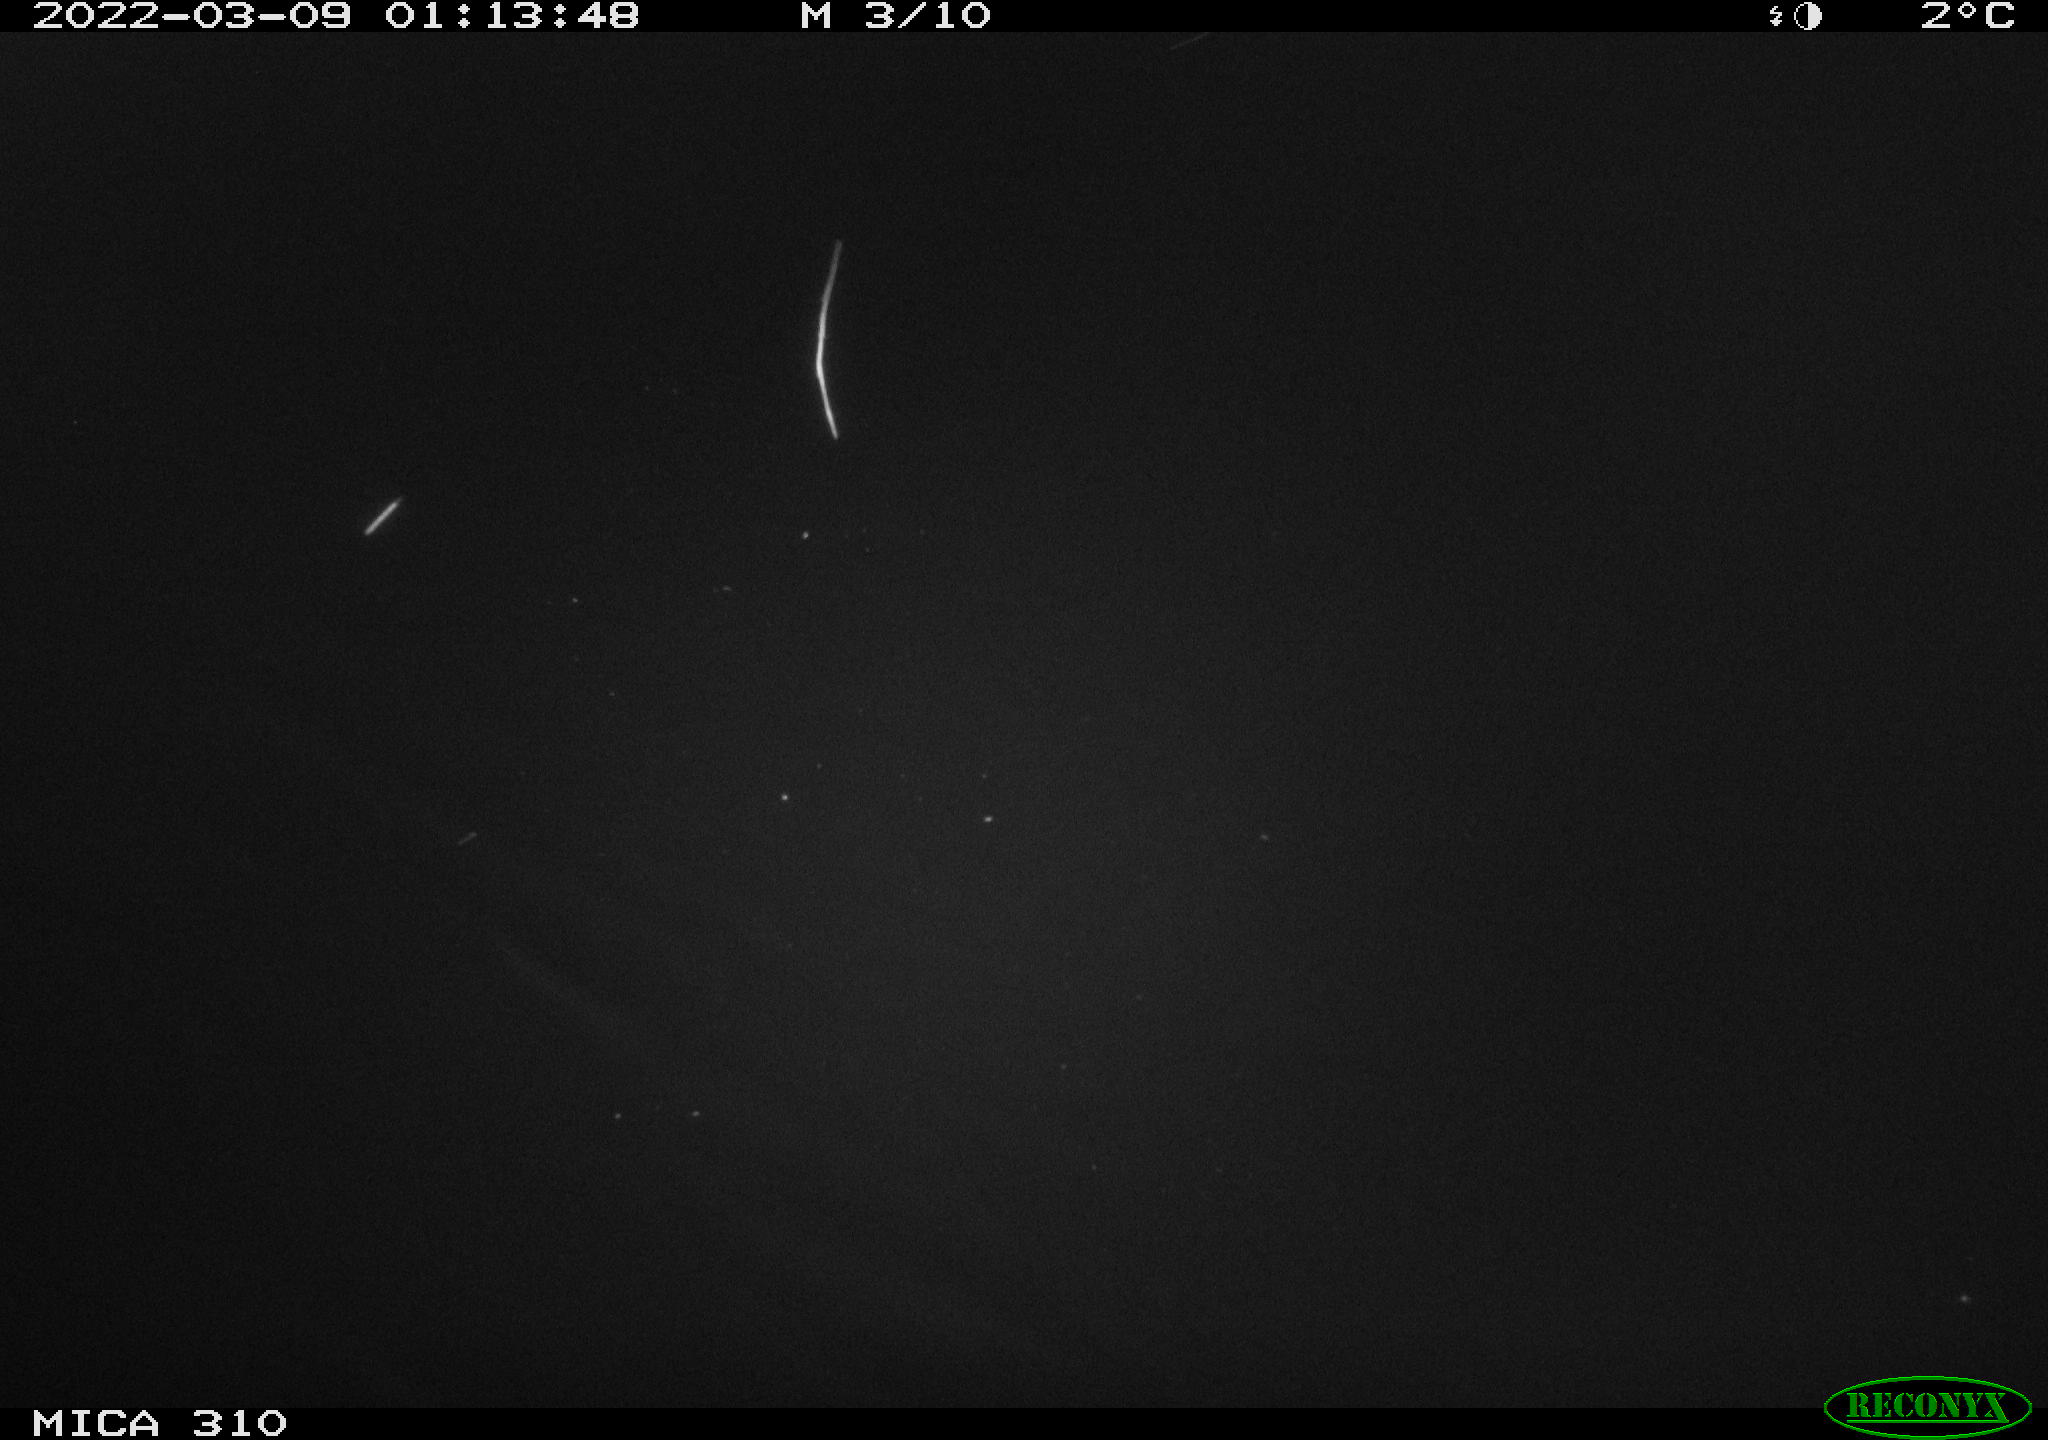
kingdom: Animalia
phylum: Chordata
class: Aves
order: Anseriformes
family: Anatidae
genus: Anas
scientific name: Anas platyrhynchos
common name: Mallard
